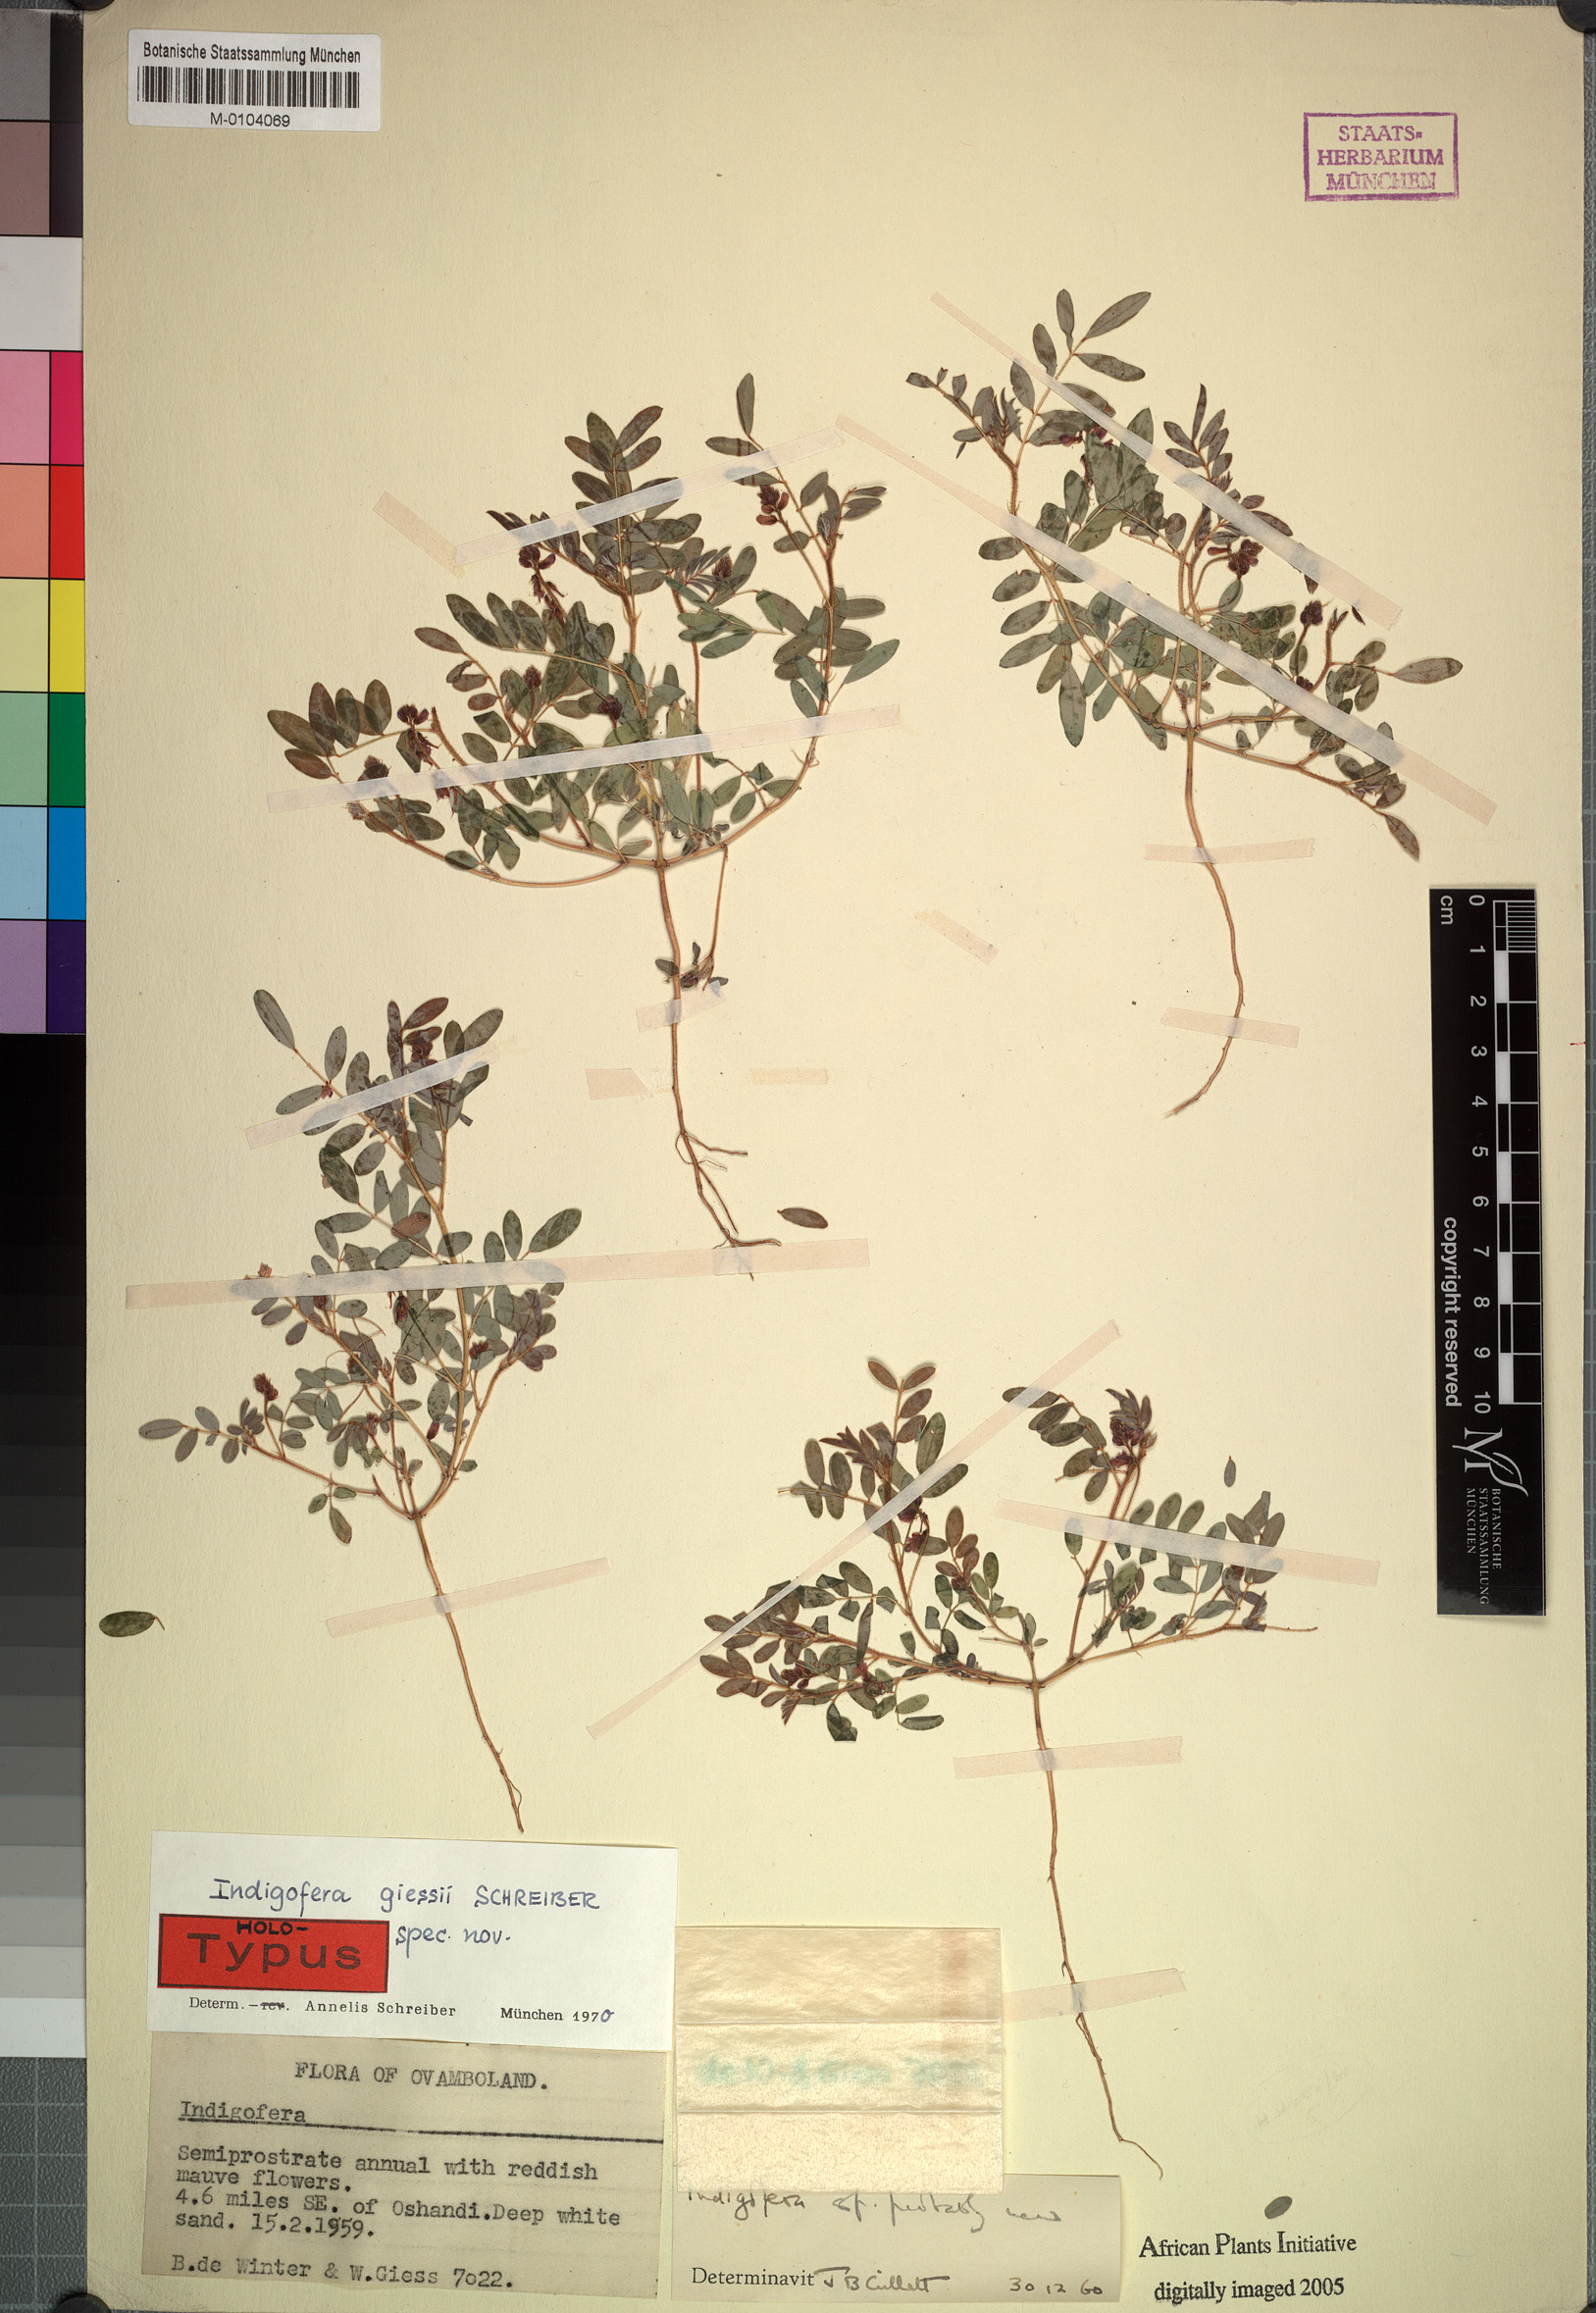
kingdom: Plantae
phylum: Tracheophyta
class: Magnoliopsida
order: Fabales
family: Fabaceae
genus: Indigofera
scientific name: Indigofera giessii
